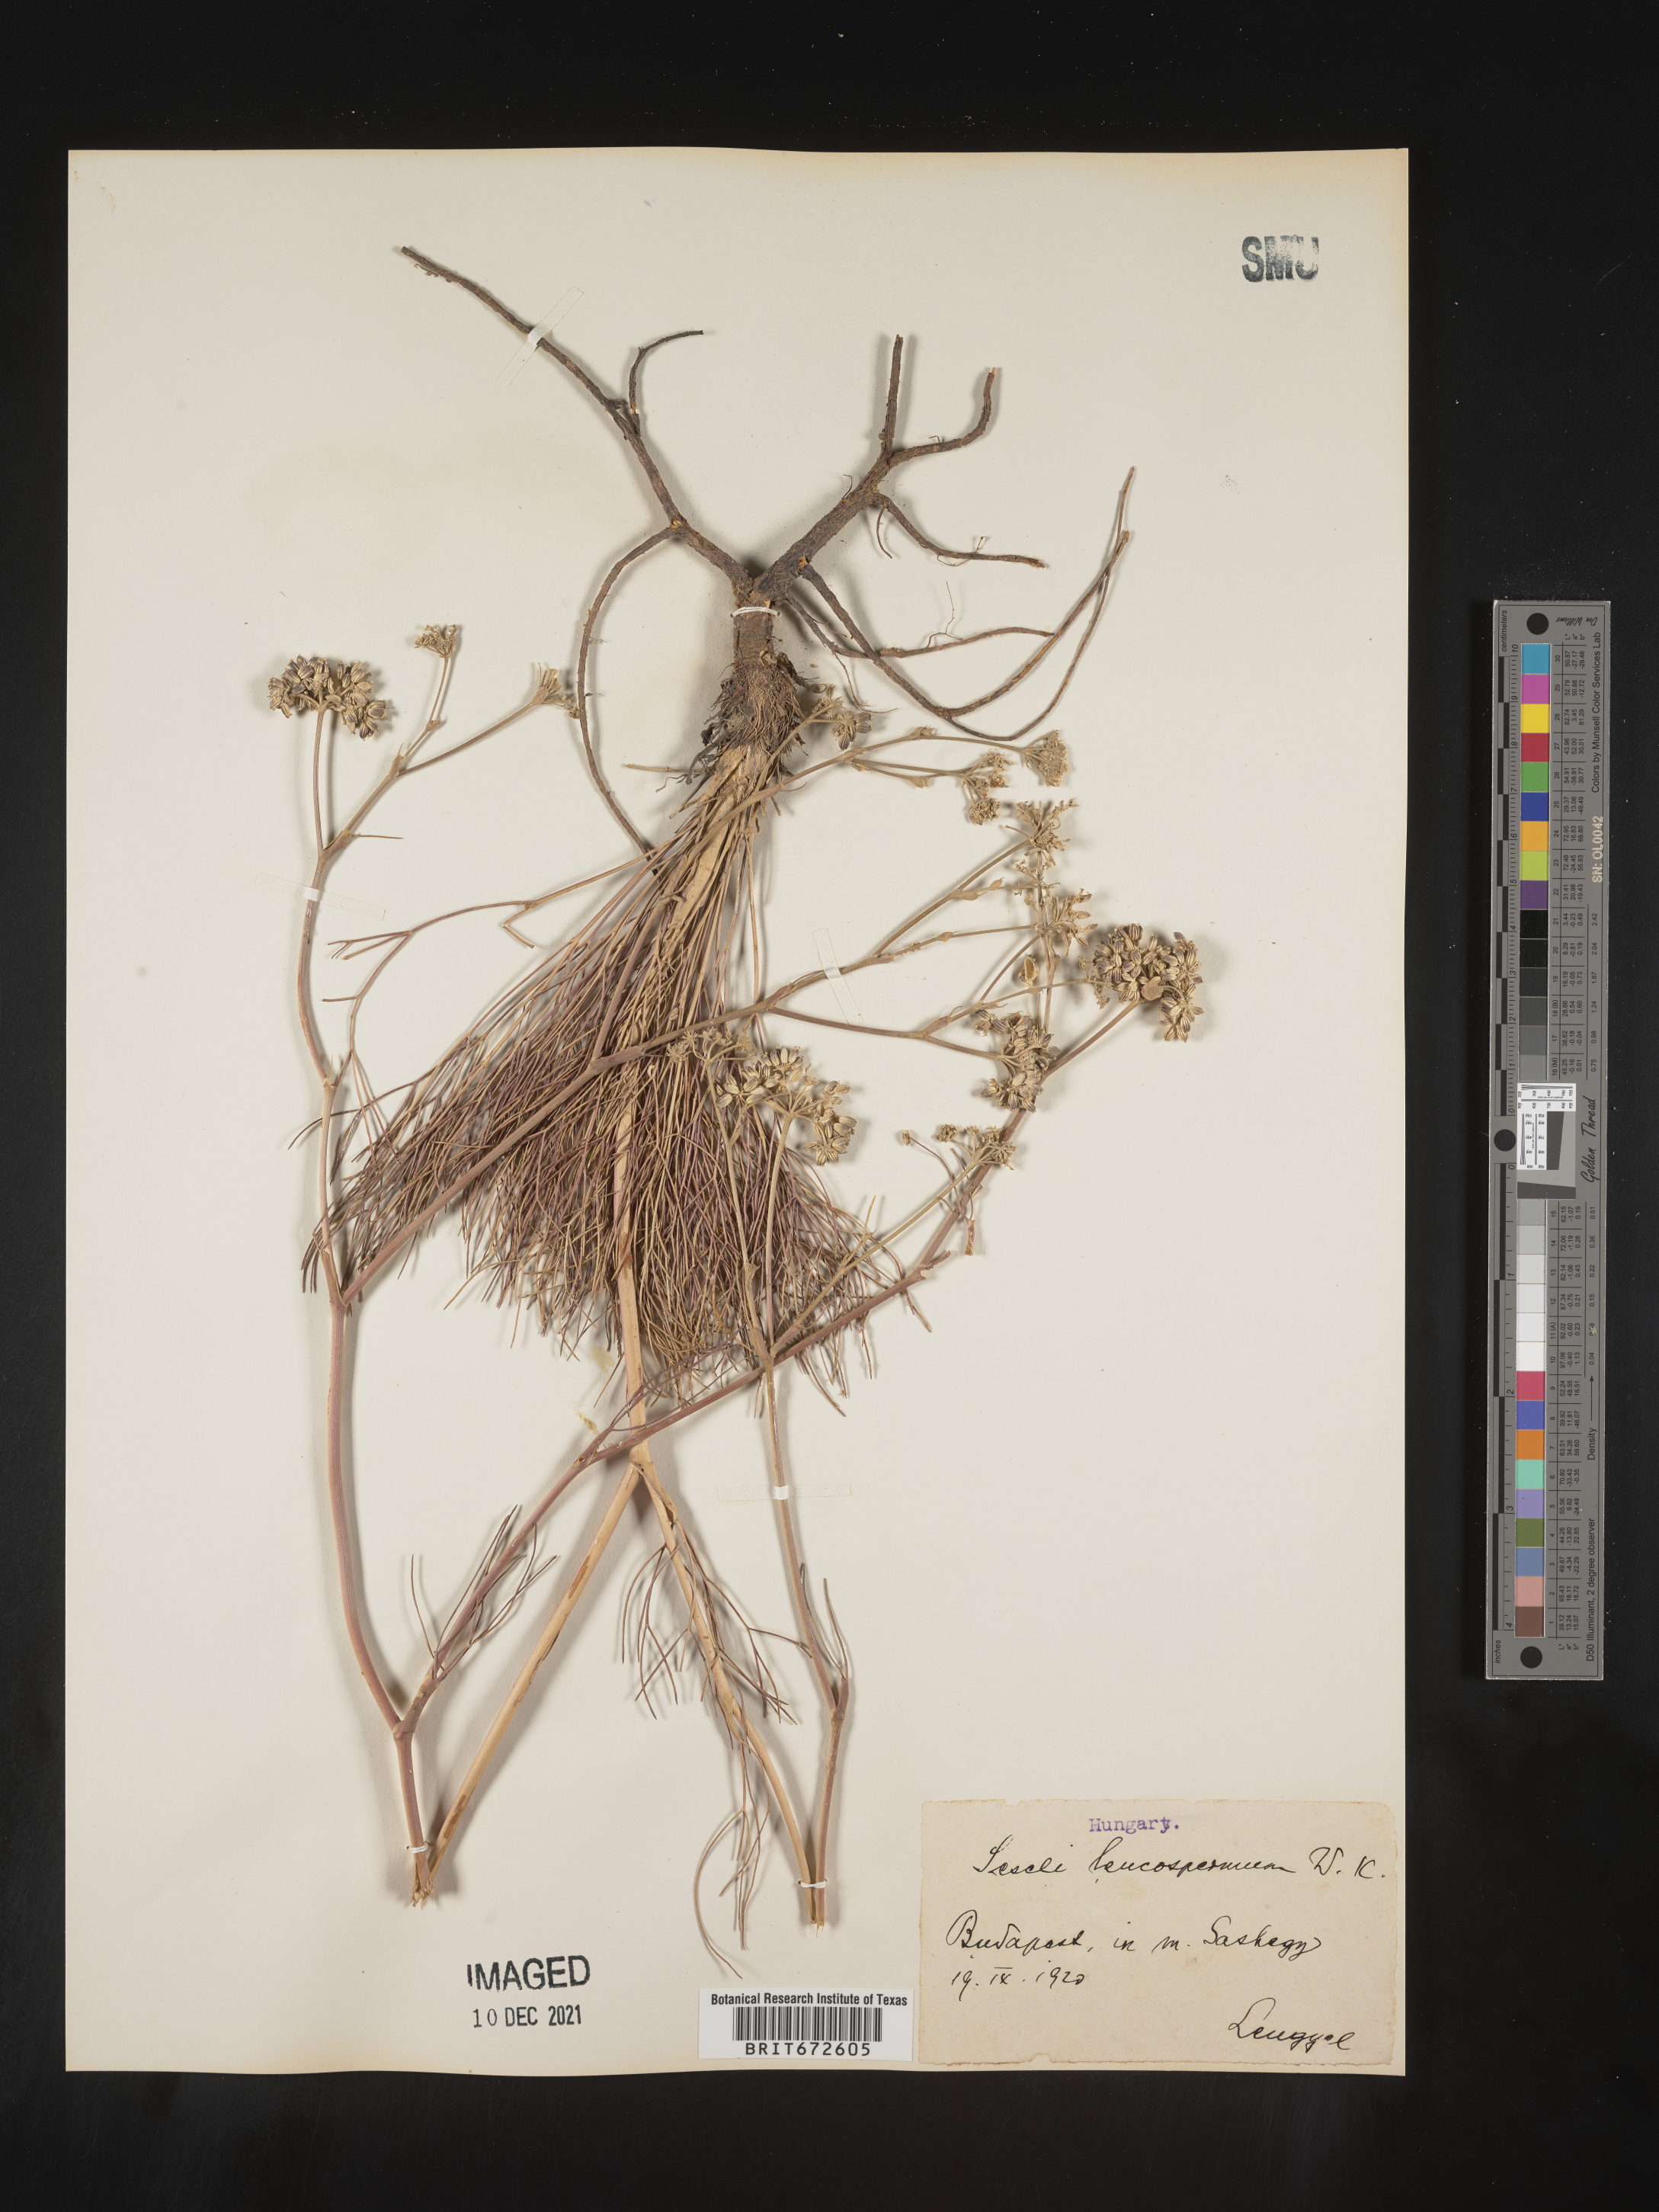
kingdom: Plantae
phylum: Tracheophyta
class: Magnoliopsida
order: Apiales
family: Apiaceae
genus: Seseli
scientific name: Seseli
